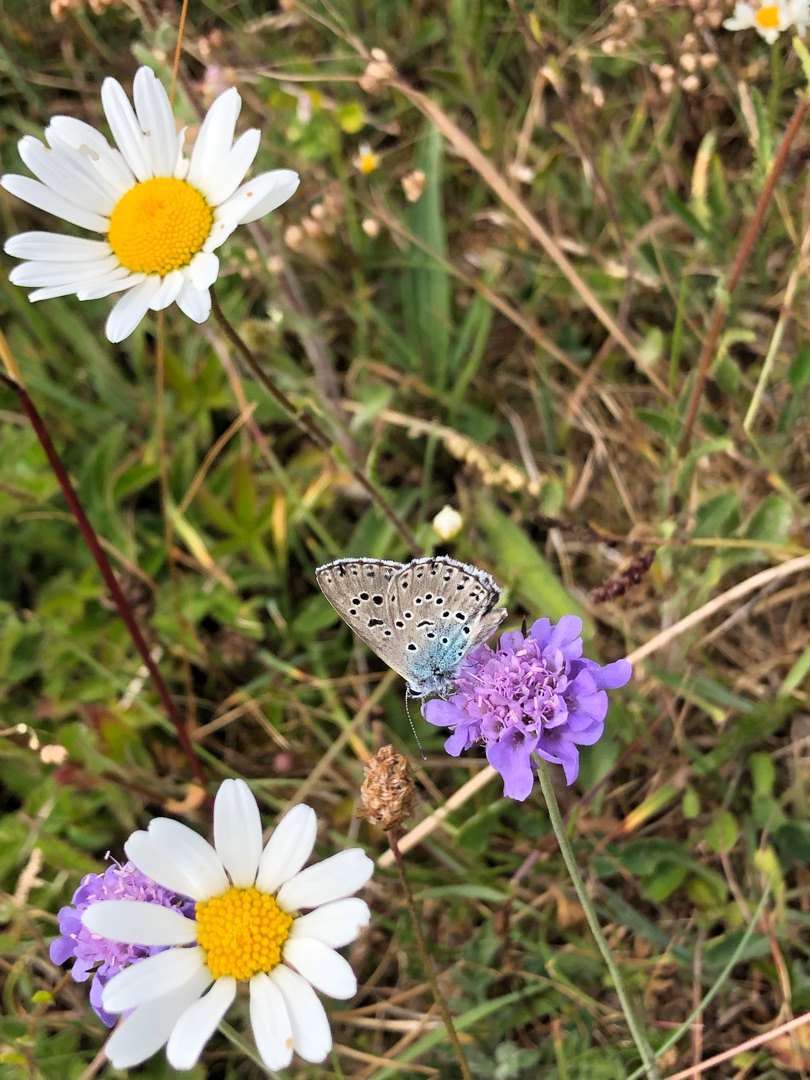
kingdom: Animalia
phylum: Arthropoda
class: Insecta
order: Lepidoptera
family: Lycaenidae
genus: Maculinea
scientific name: Maculinea arion
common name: Sortplettet blåfugl
